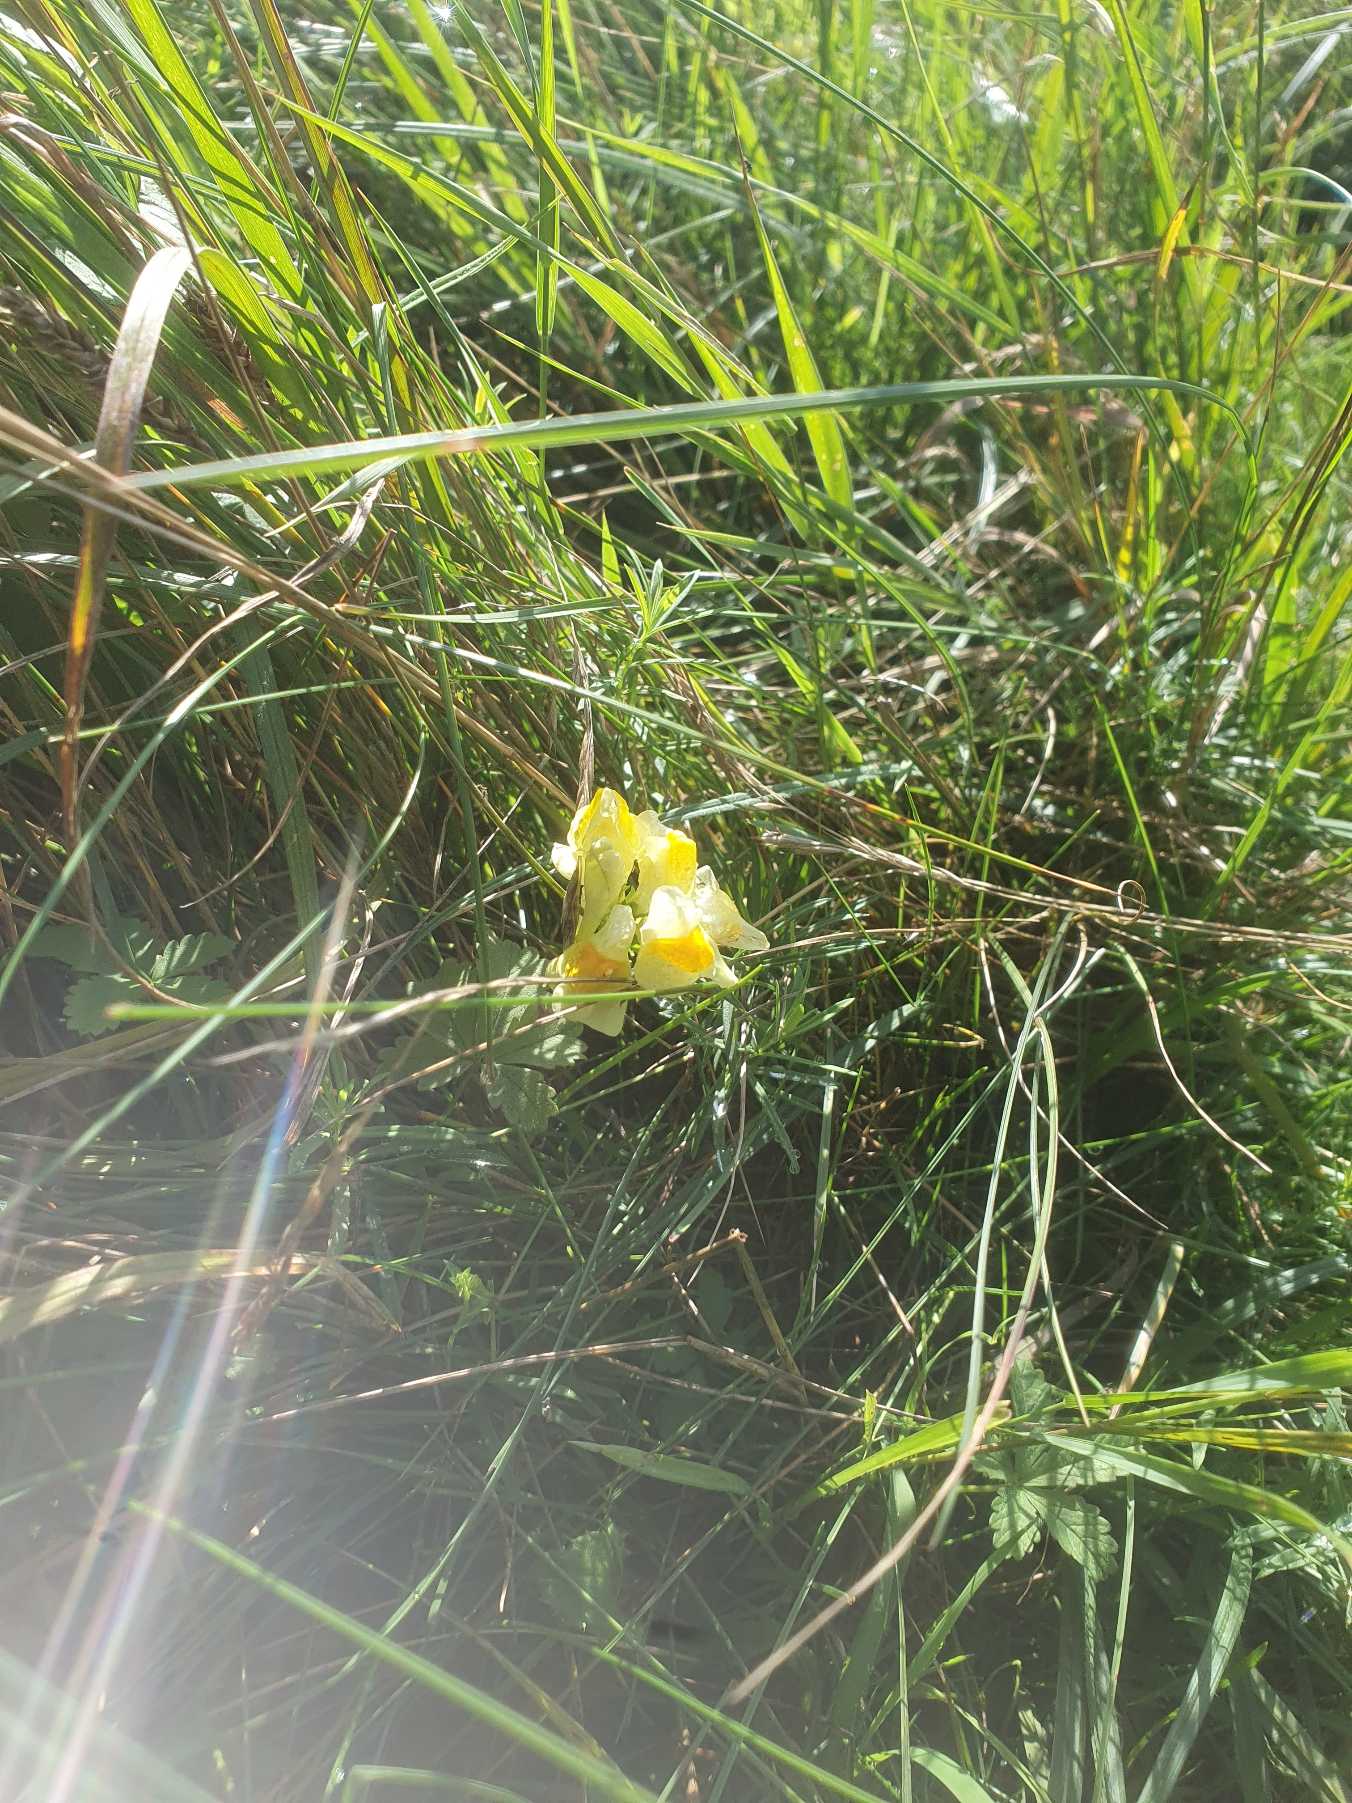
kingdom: Plantae
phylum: Tracheophyta
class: Magnoliopsida
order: Lamiales
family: Plantaginaceae
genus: Linaria
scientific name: Linaria vulgaris
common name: Almindelig torskemund
